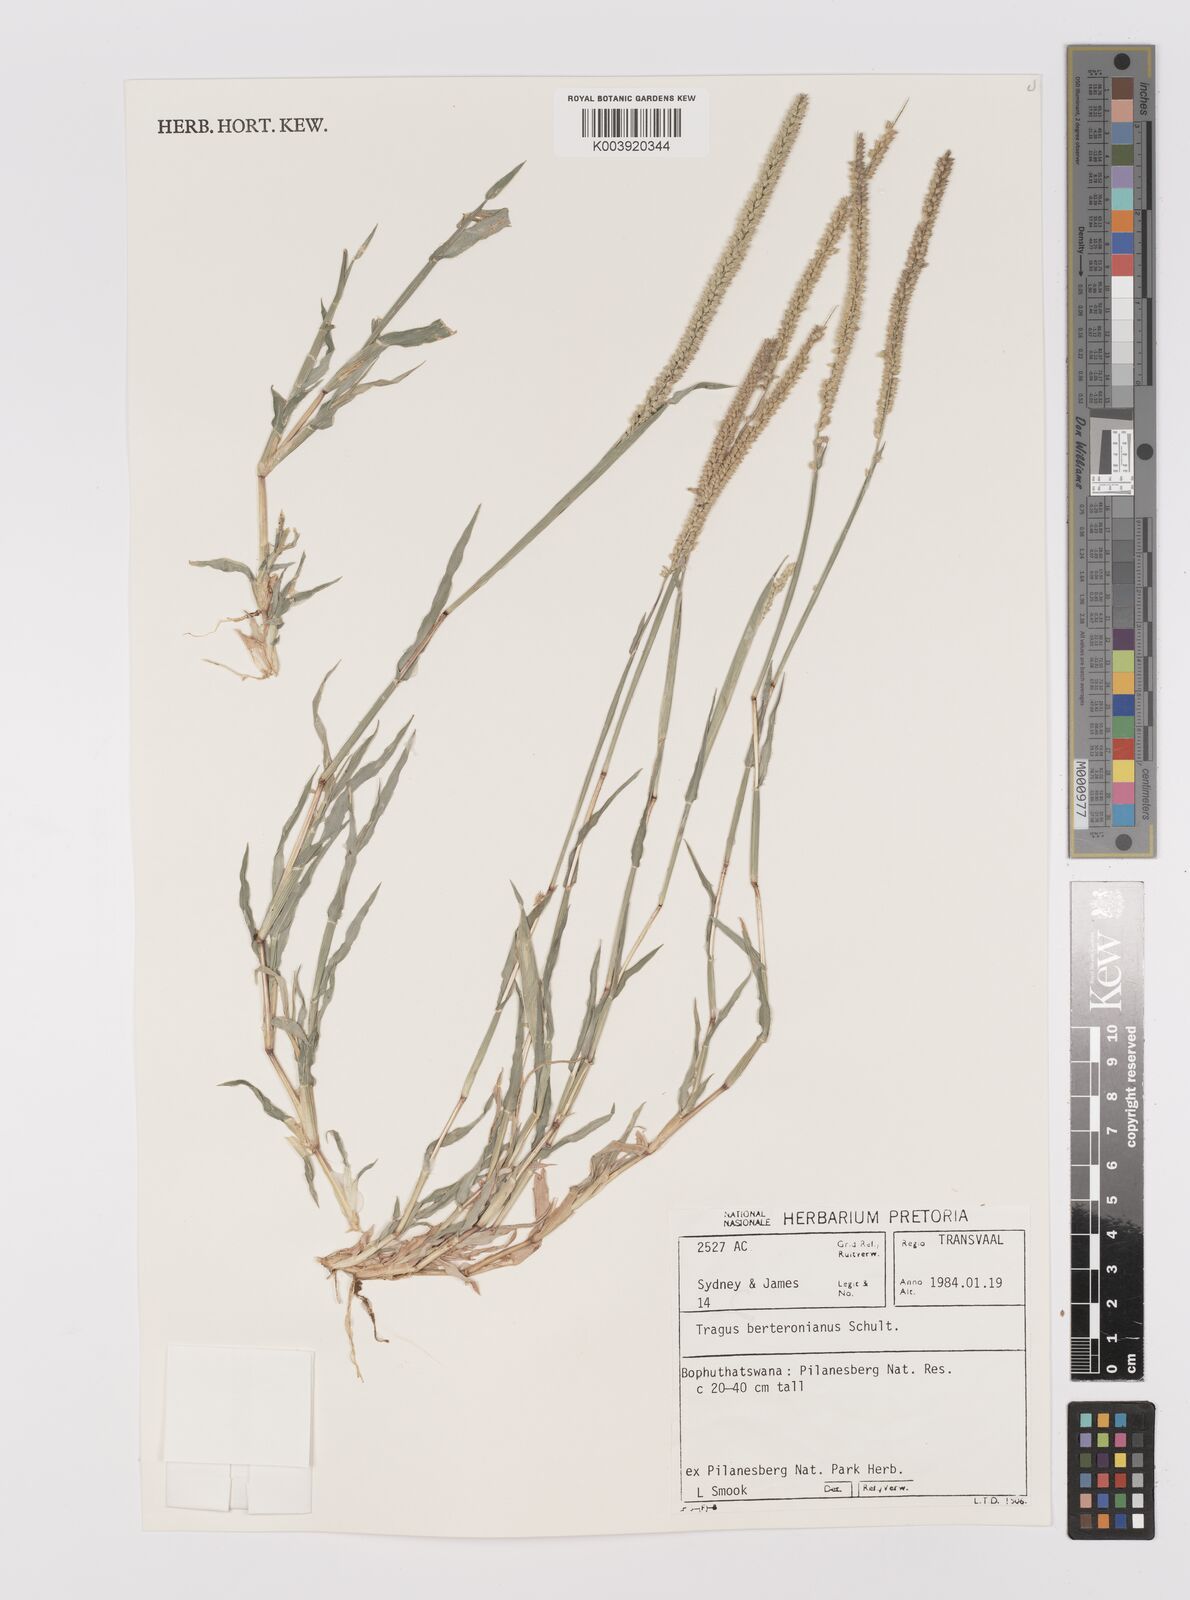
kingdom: Plantae
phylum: Tracheophyta
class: Liliopsida
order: Poales
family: Poaceae
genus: Tragus
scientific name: Tragus berteronianus
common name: African bur-grass
